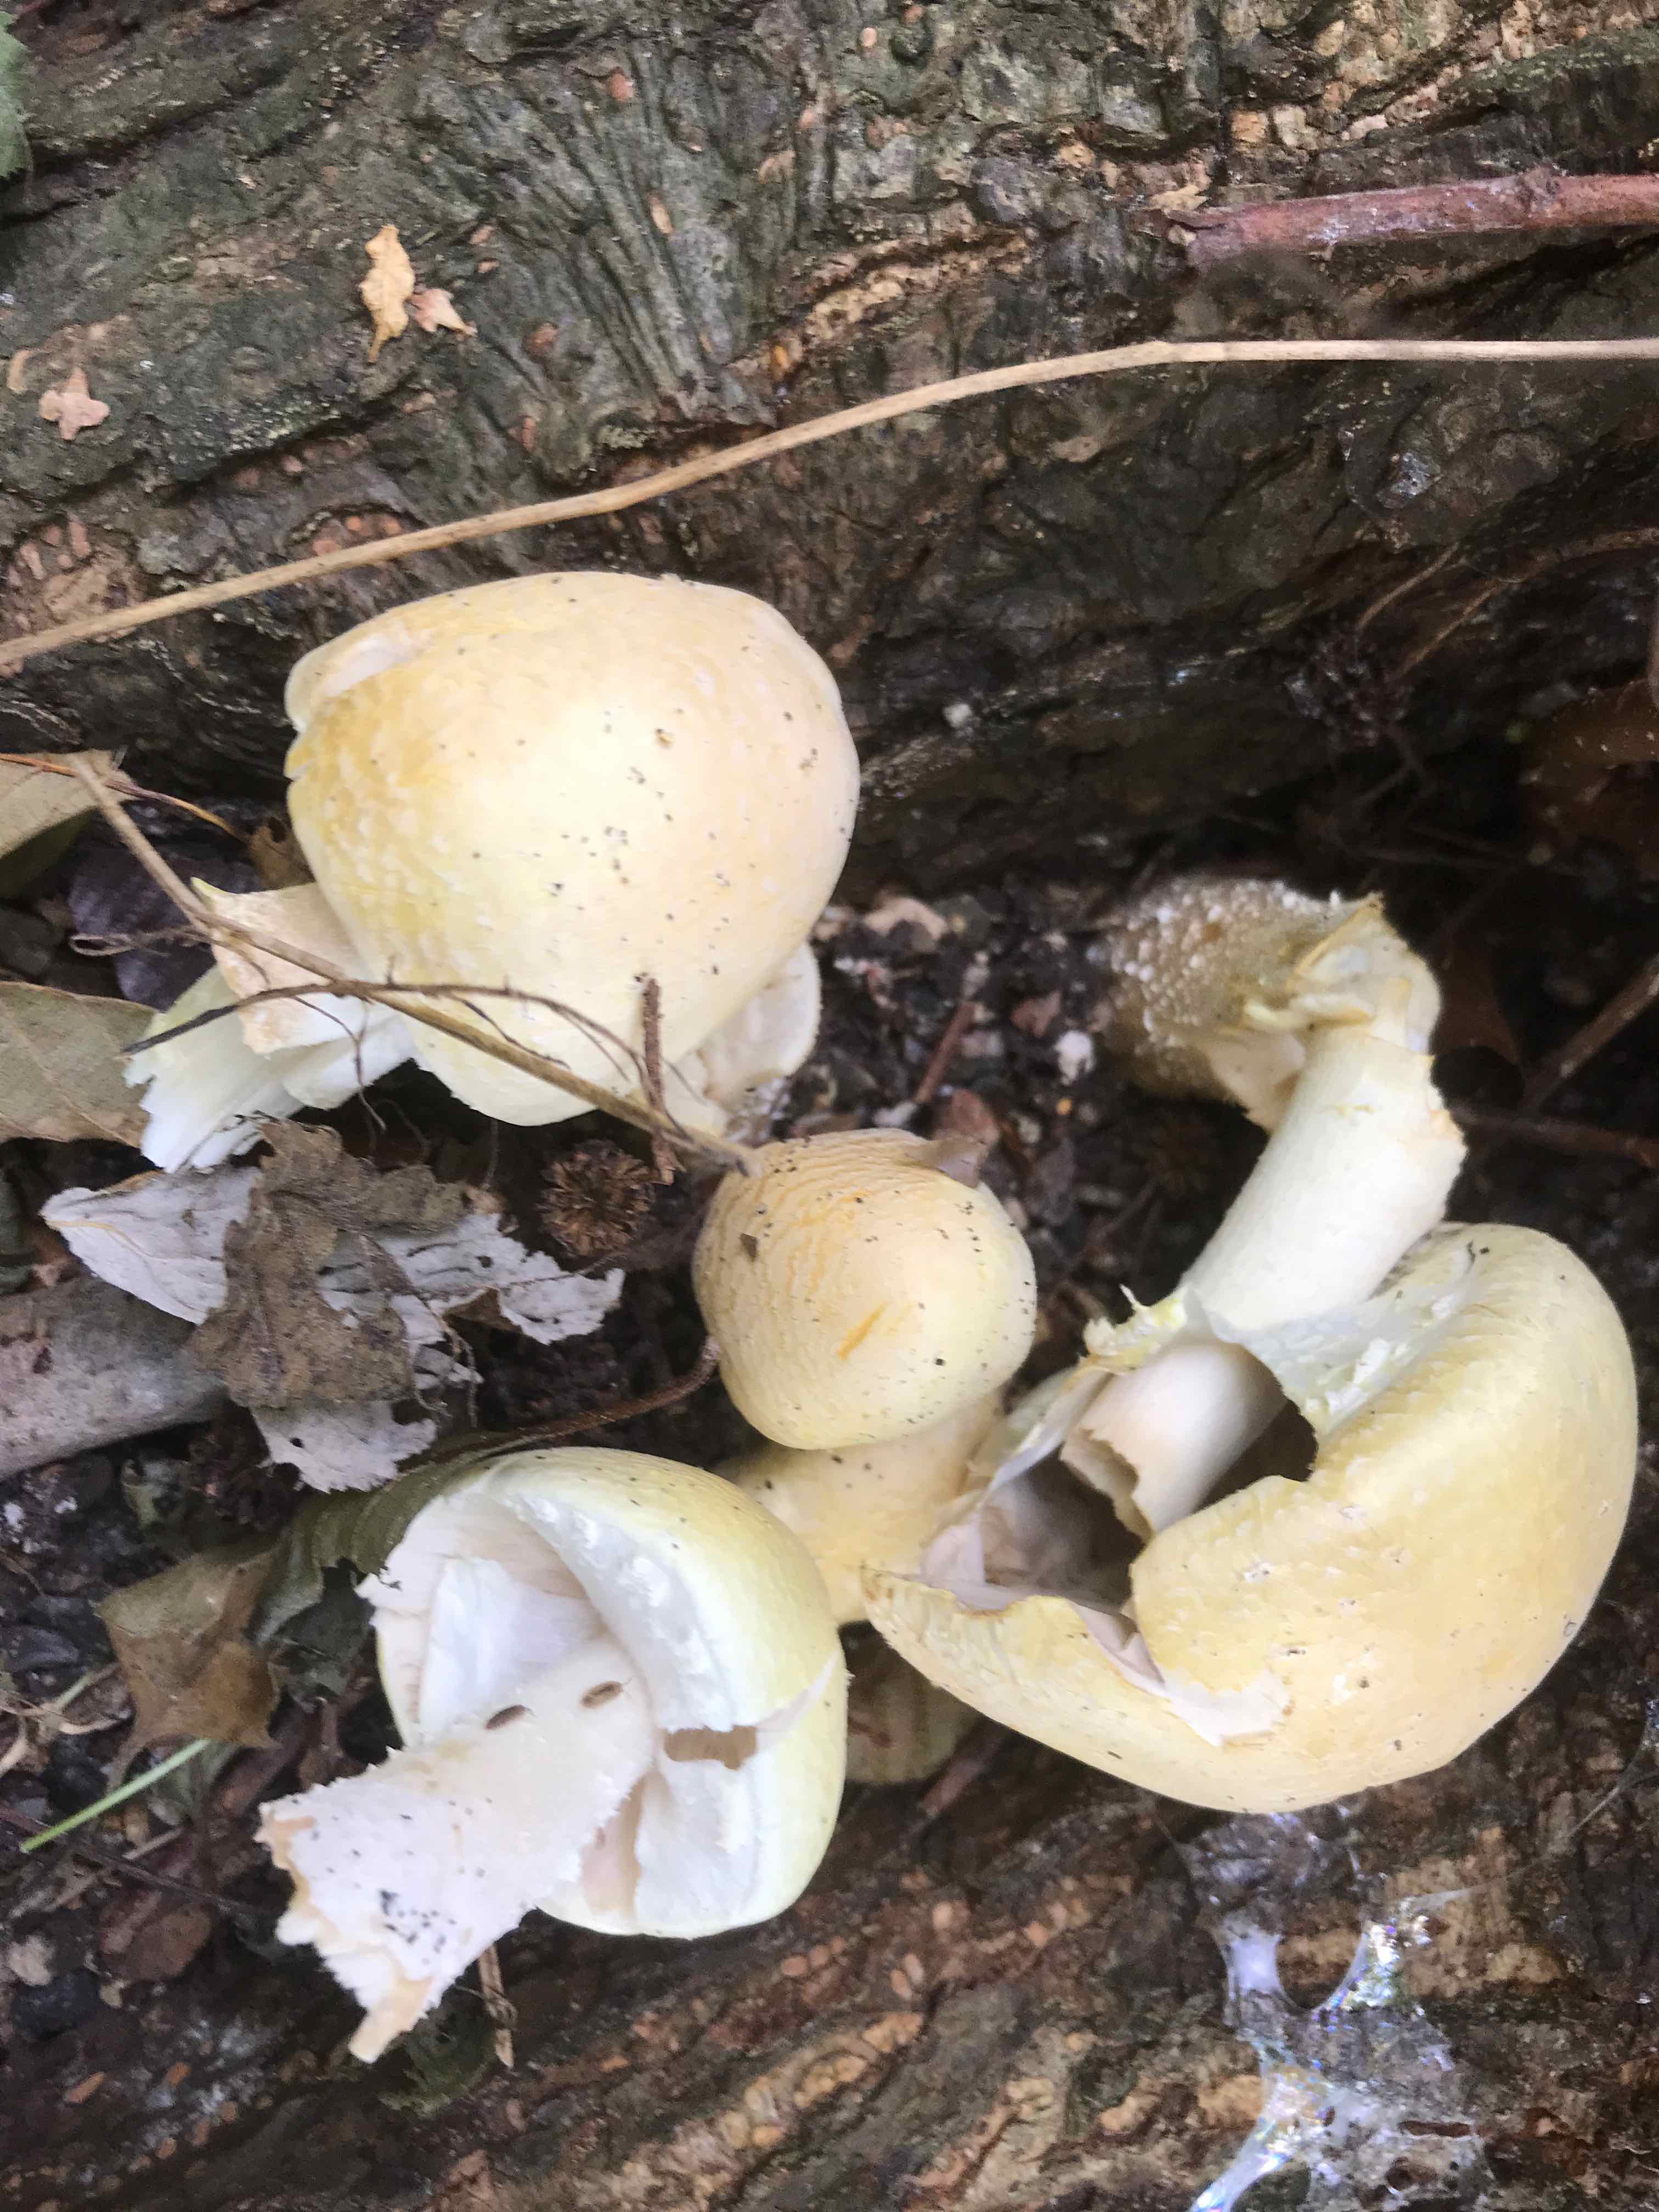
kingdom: Fungi
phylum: Basidiomycota
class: Agaricomycetes
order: Agaricales
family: Agaricaceae
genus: Agaricus
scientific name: Agaricus arvensis
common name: ager-champignon
